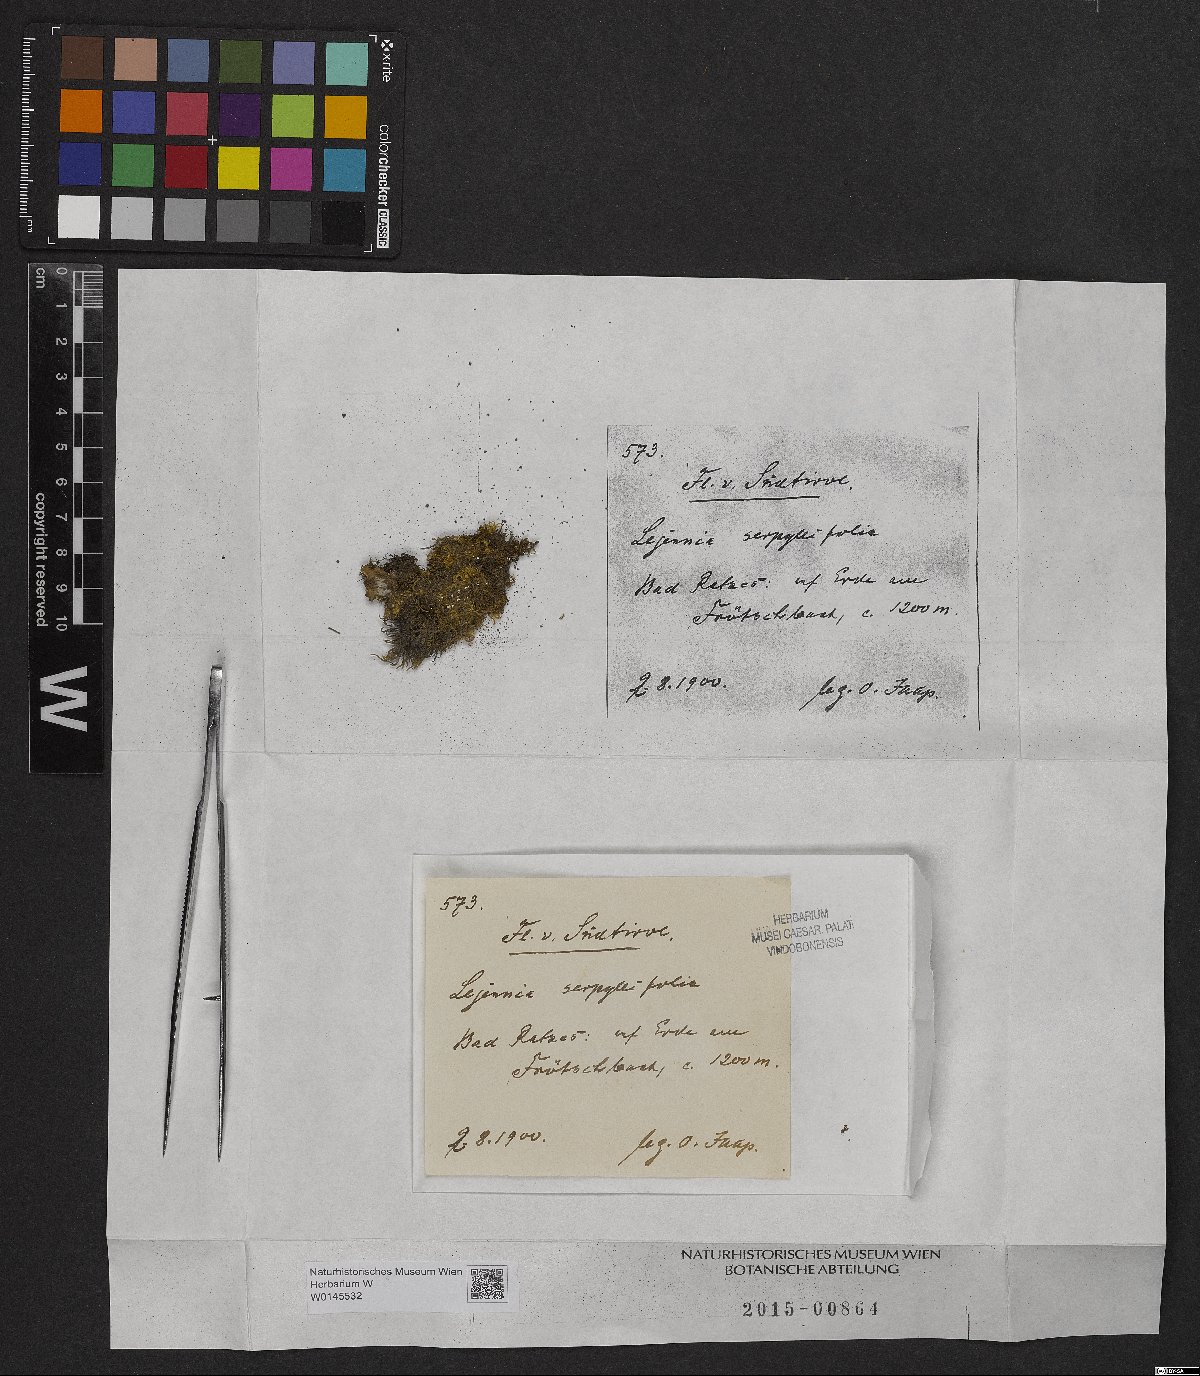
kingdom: Plantae
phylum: Marchantiophyta
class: Jungermanniopsida
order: Porellales
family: Lejeuneaceae
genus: Lejeunea
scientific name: Lejeunea patens
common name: Pearl pouncewort
